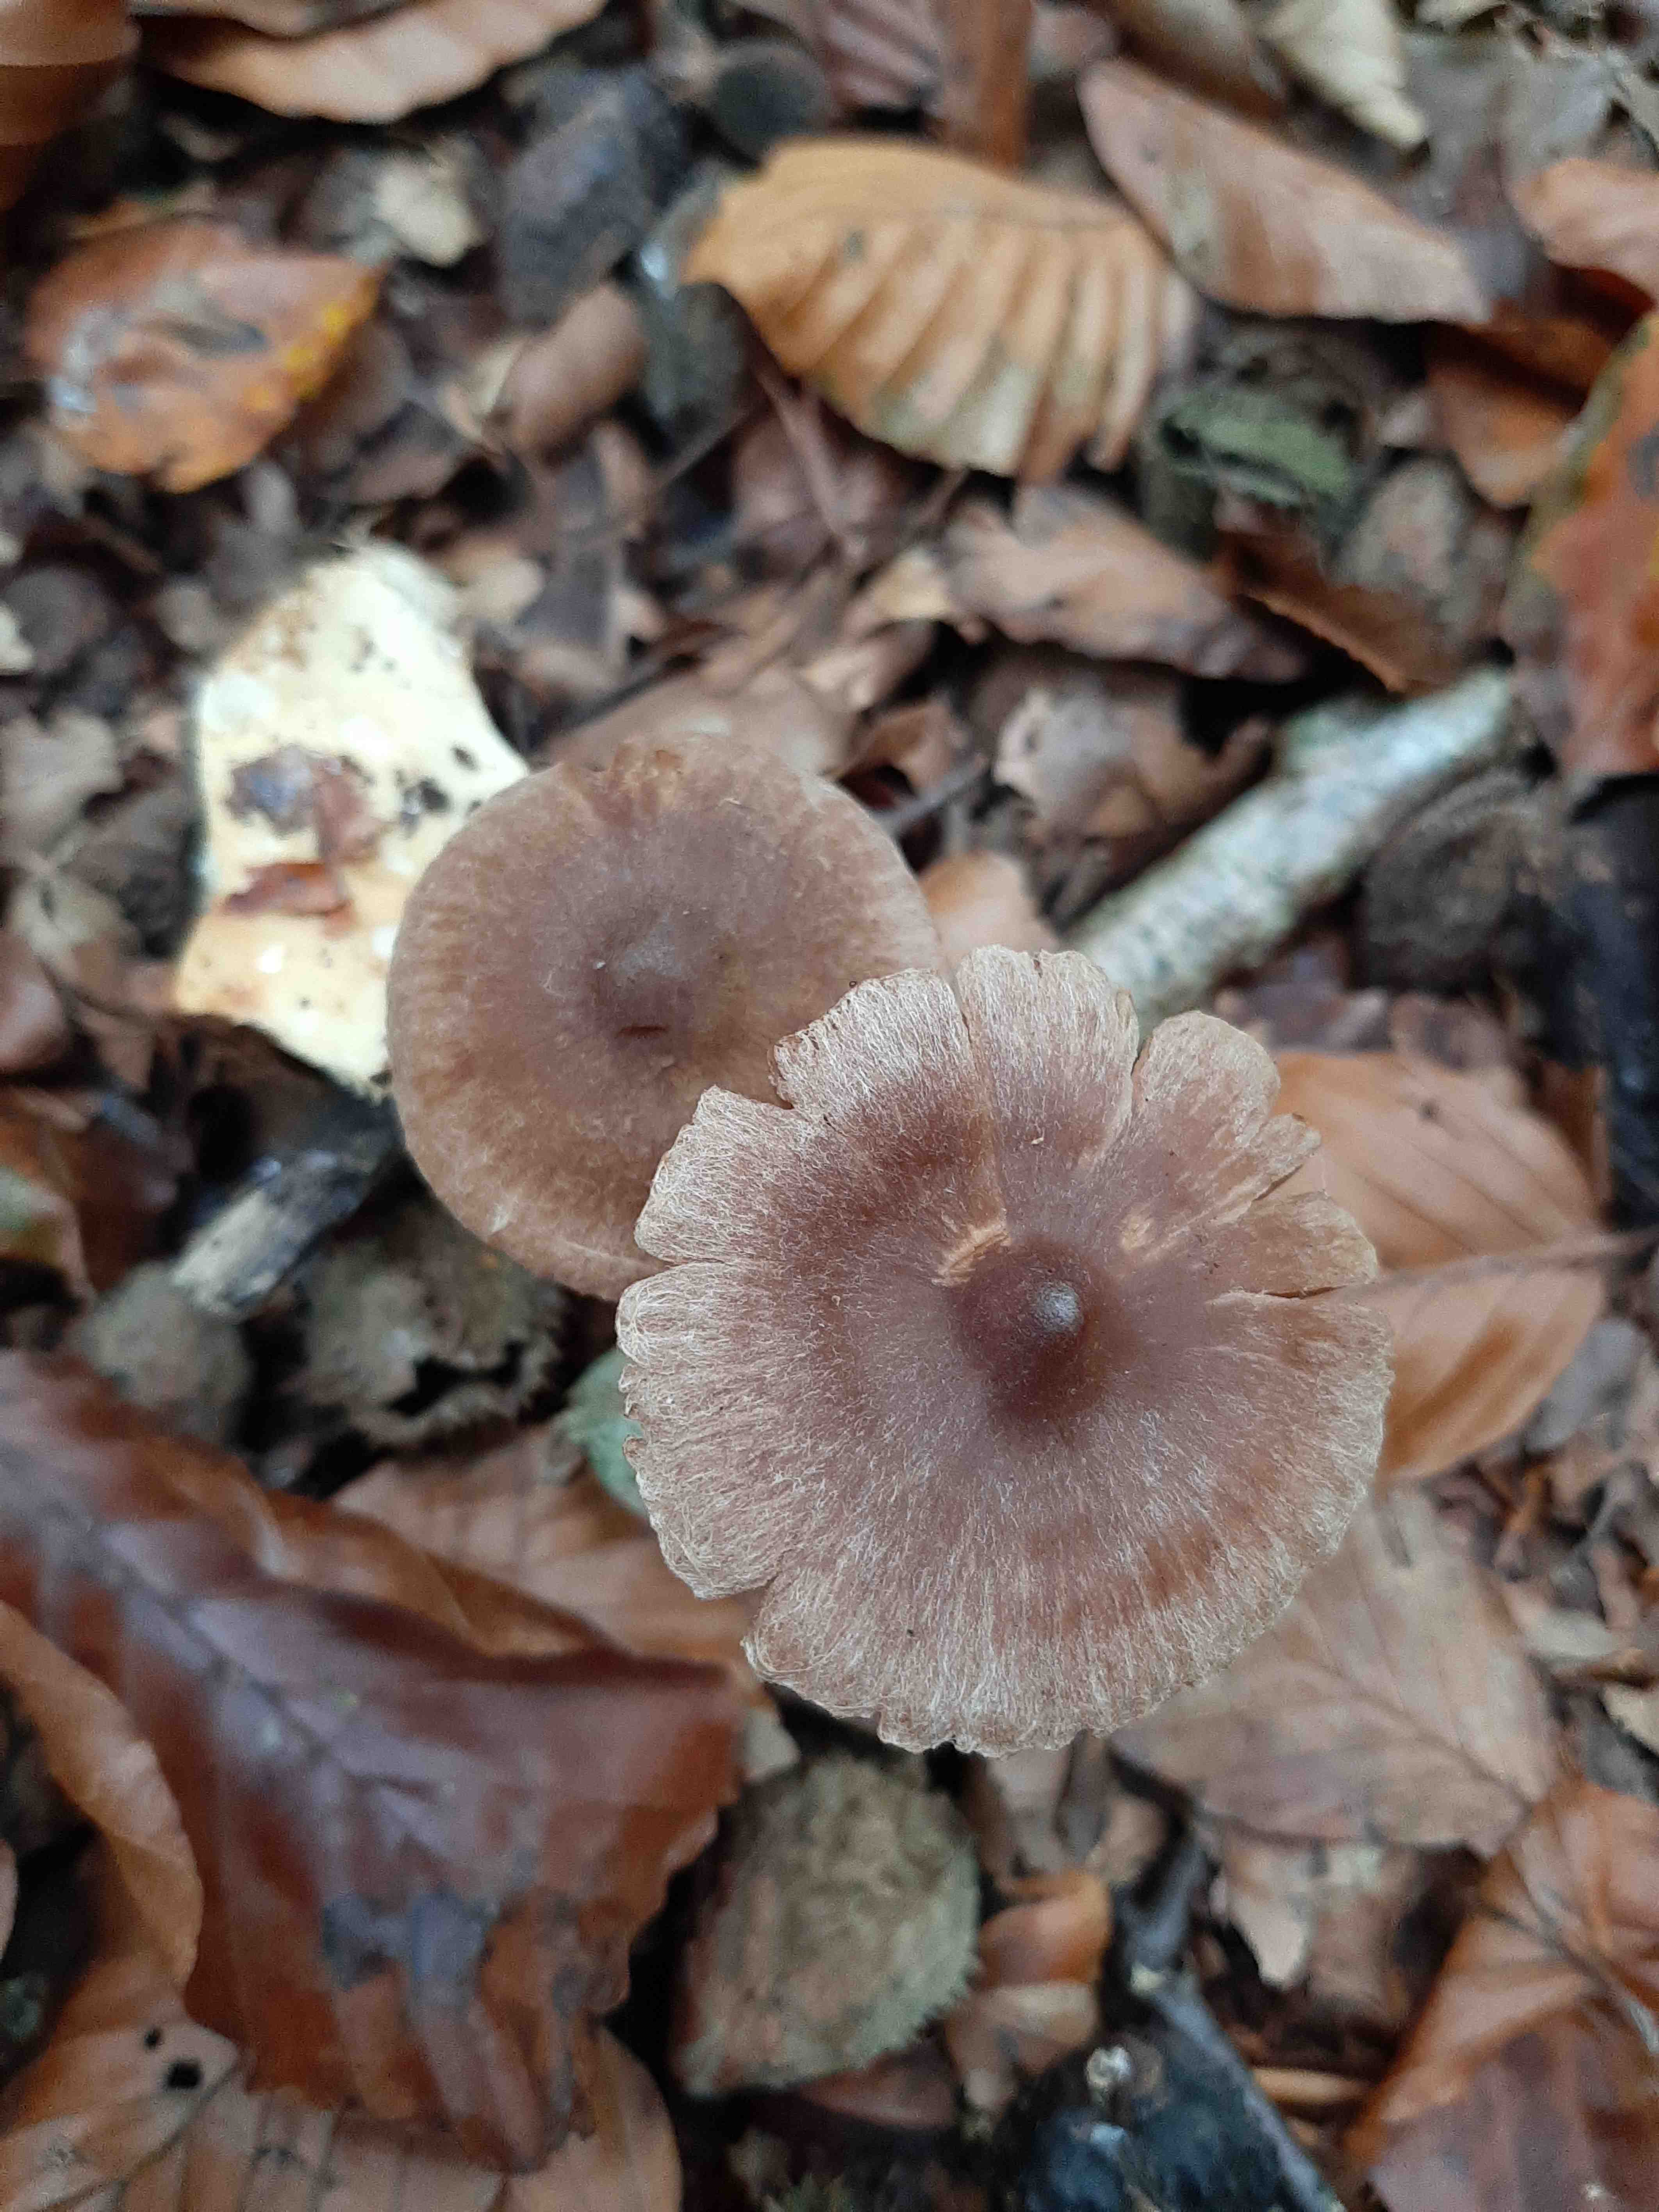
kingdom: Fungi
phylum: Basidiomycota
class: Agaricomycetes
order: Agaricales
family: Cortinariaceae
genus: Cortinarius
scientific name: Cortinarius
